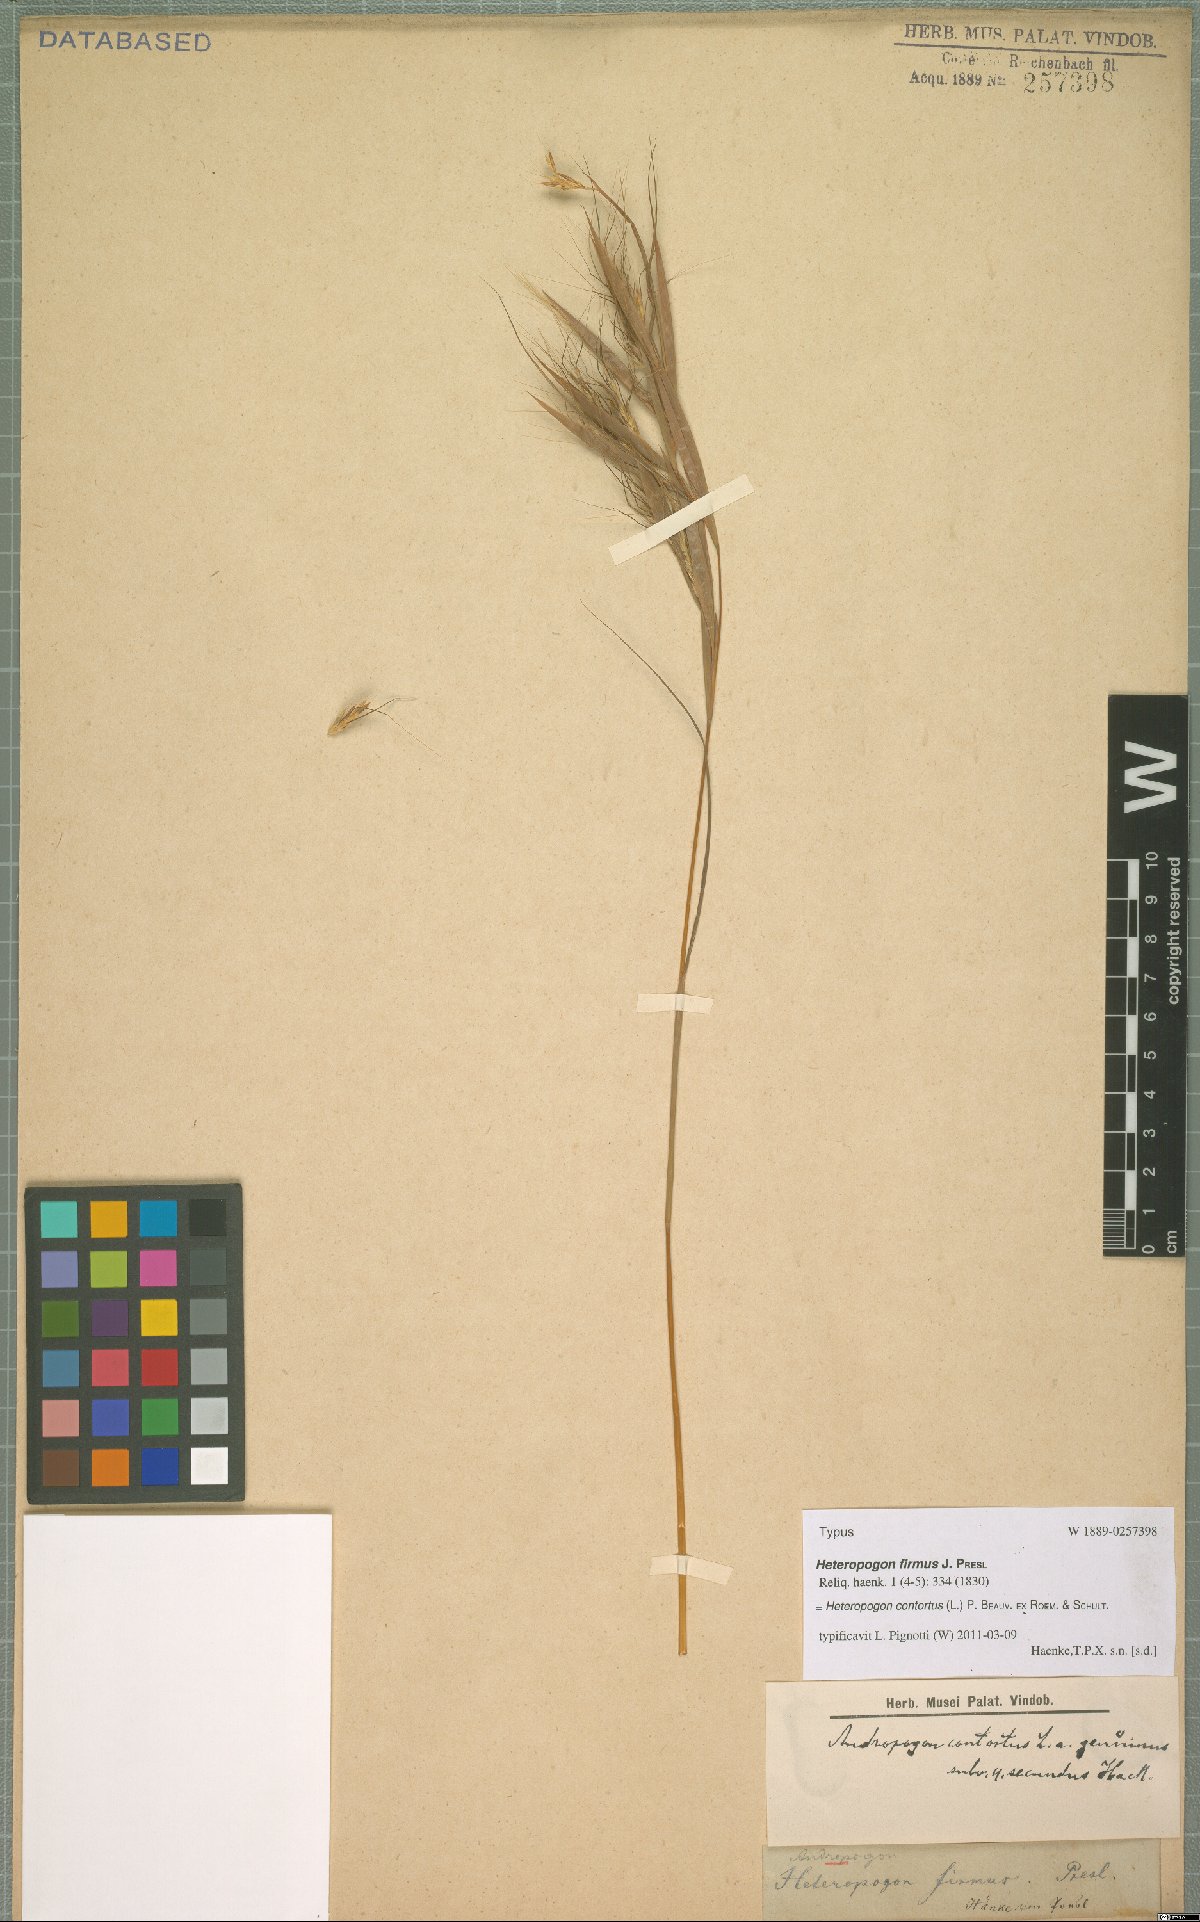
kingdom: Plantae
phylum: Tracheophyta
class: Liliopsida
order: Poales
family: Poaceae
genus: Heteropogon
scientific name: Heteropogon contortus
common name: Tanglehead
